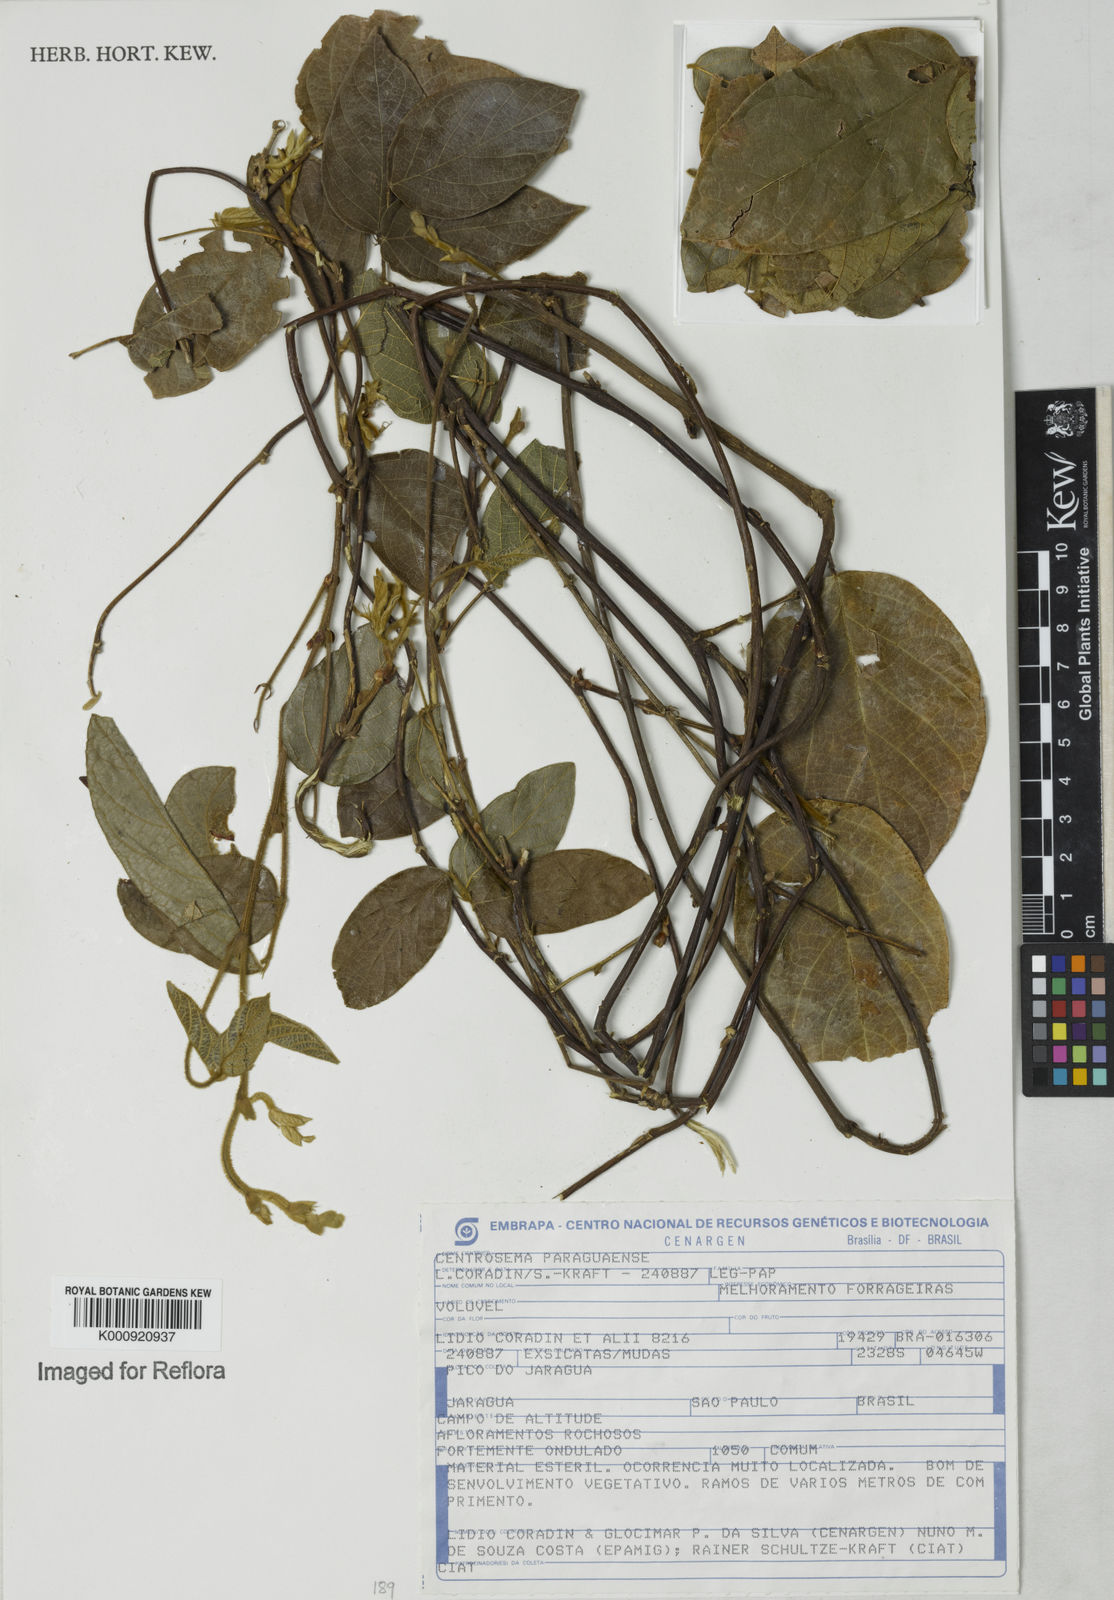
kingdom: Plantae
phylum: Tracheophyta
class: Magnoliopsida
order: Fabales
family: Fabaceae
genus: Centrosema
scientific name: Centrosema
